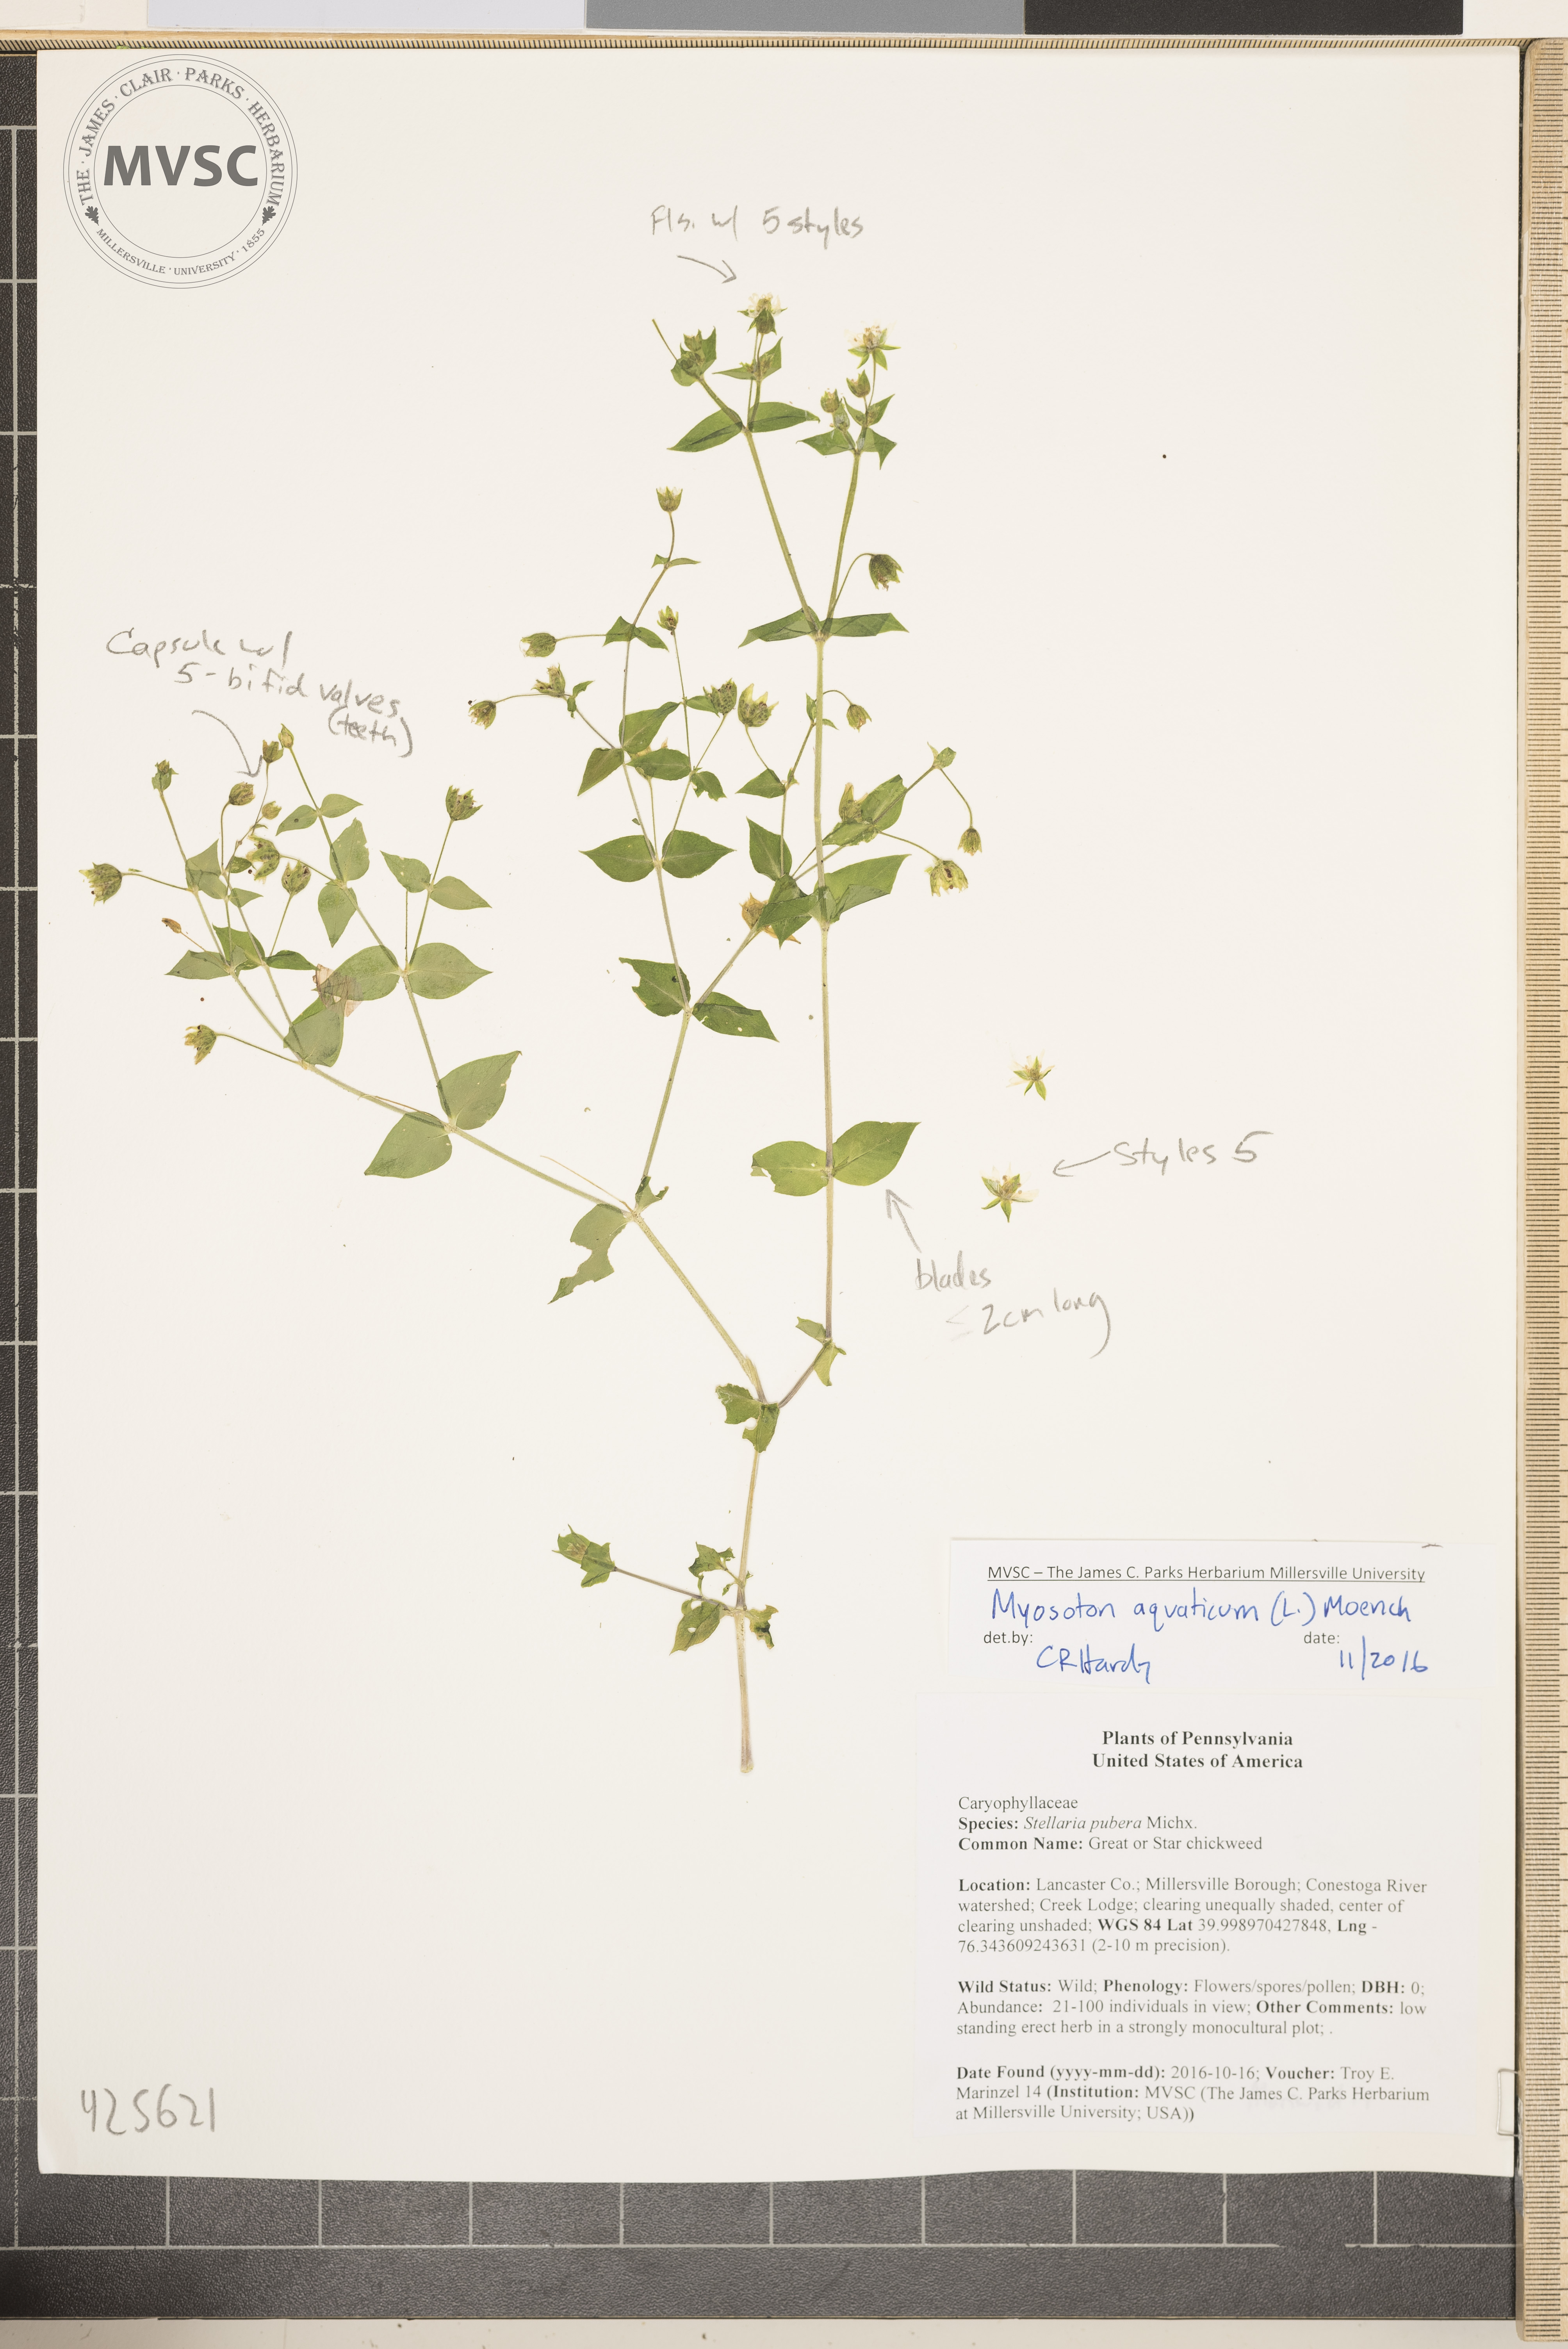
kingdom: Plantae
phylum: Tracheophyta
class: Magnoliopsida
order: Caryophyllales
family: Caryophyllaceae
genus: Stellaria
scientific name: Stellaria aquatica
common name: Giant chickweed
